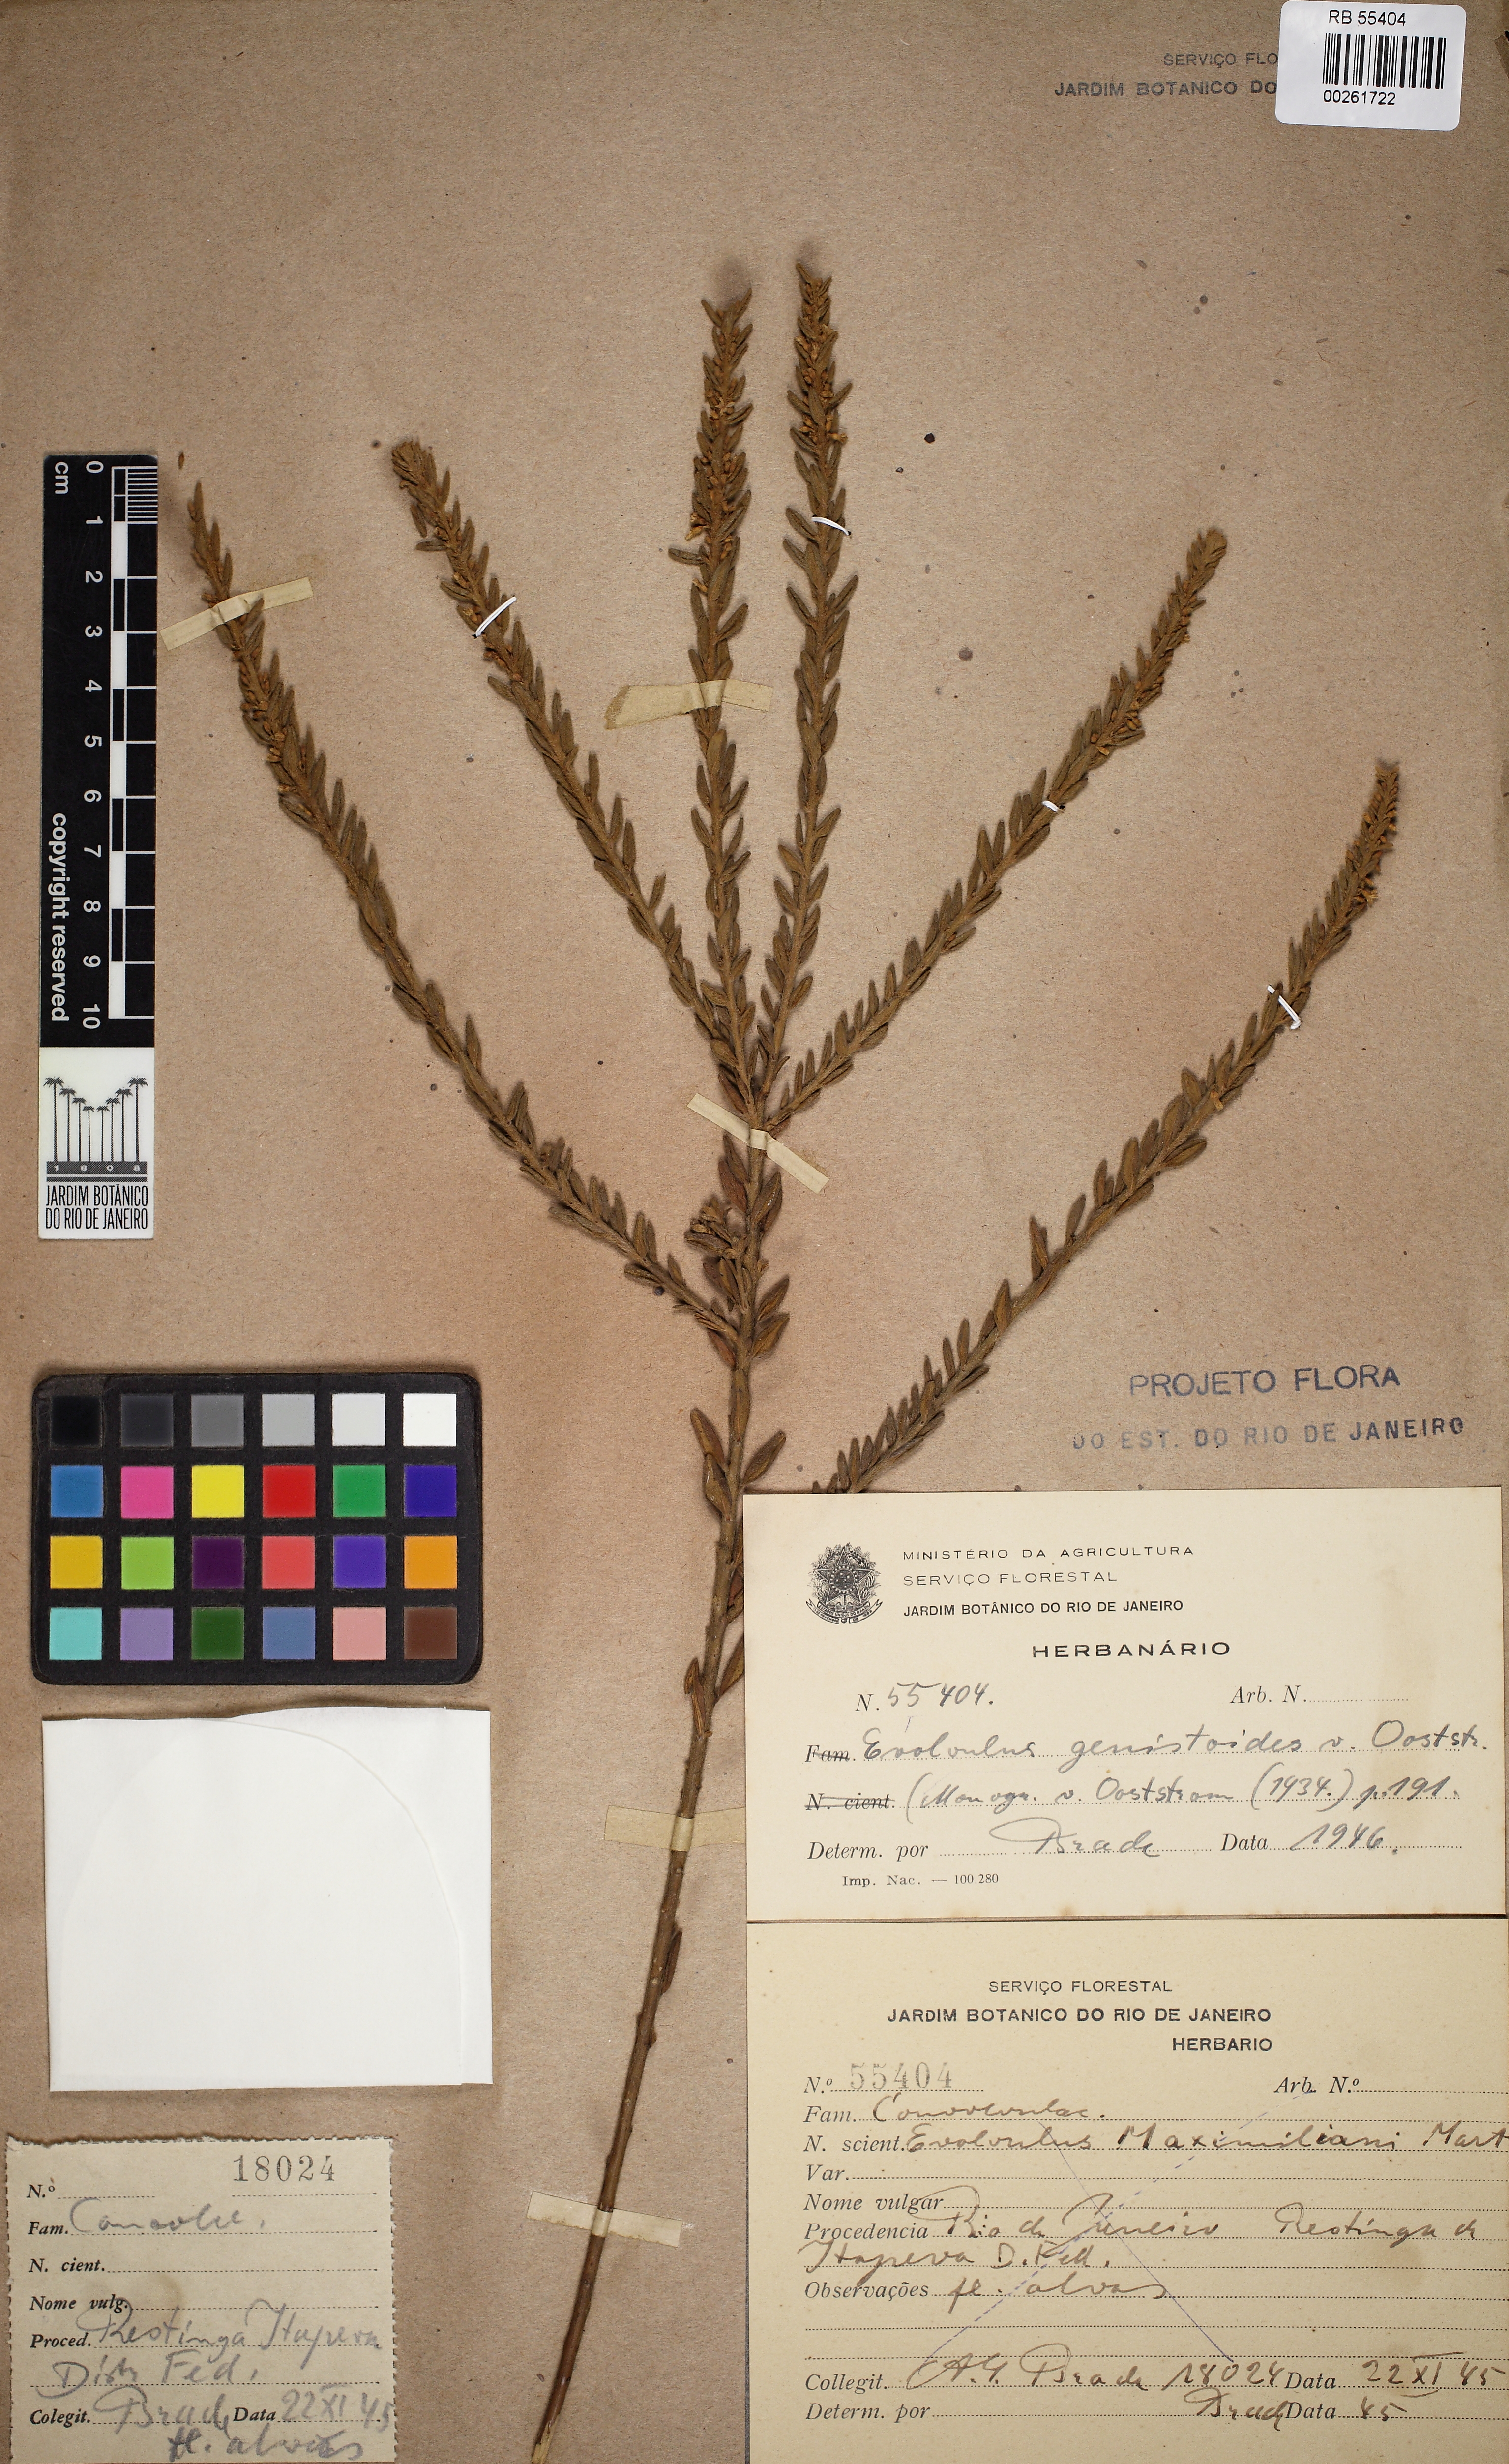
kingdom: Plantae
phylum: Tracheophyta
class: Magnoliopsida
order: Solanales
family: Convolvulaceae
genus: Evolvulus
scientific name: Evolvulus genistoides
